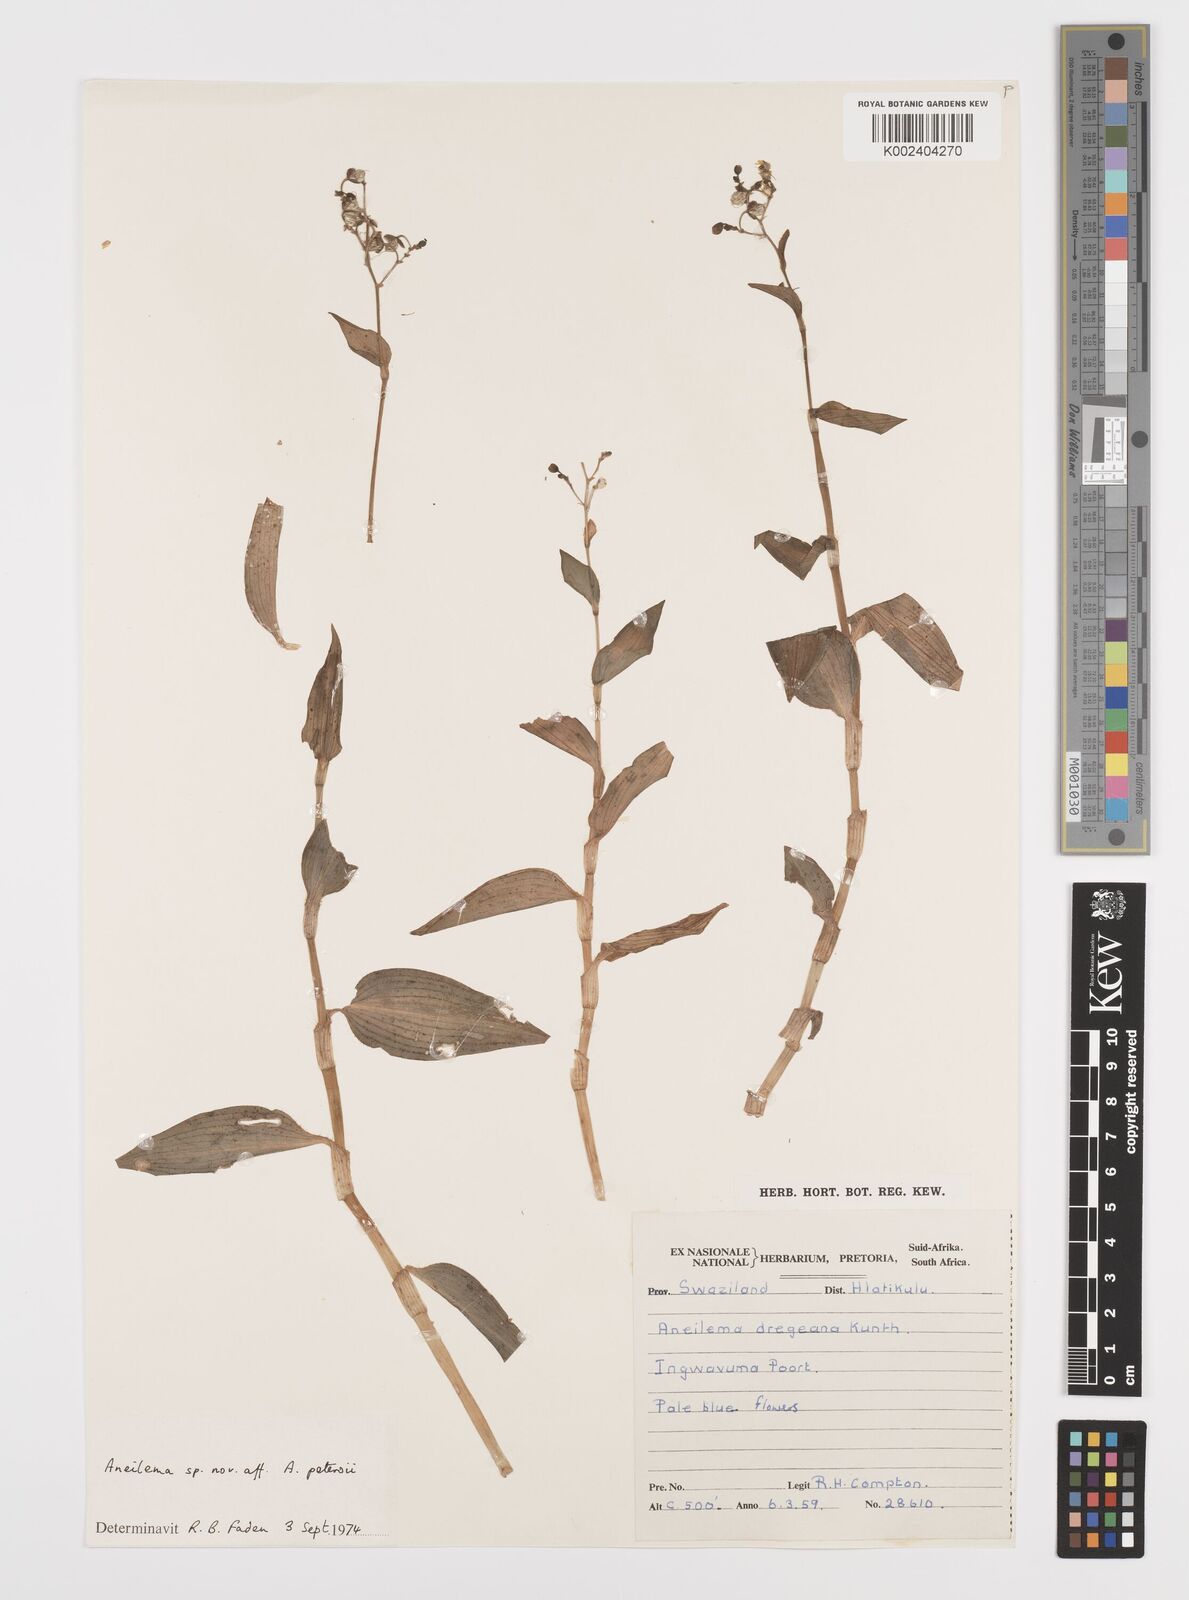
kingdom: Plantae
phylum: Tracheophyta
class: Liliopsida
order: Commelinales
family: Commelinaceae
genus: Aneilema
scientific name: Aneilema indehiscens
